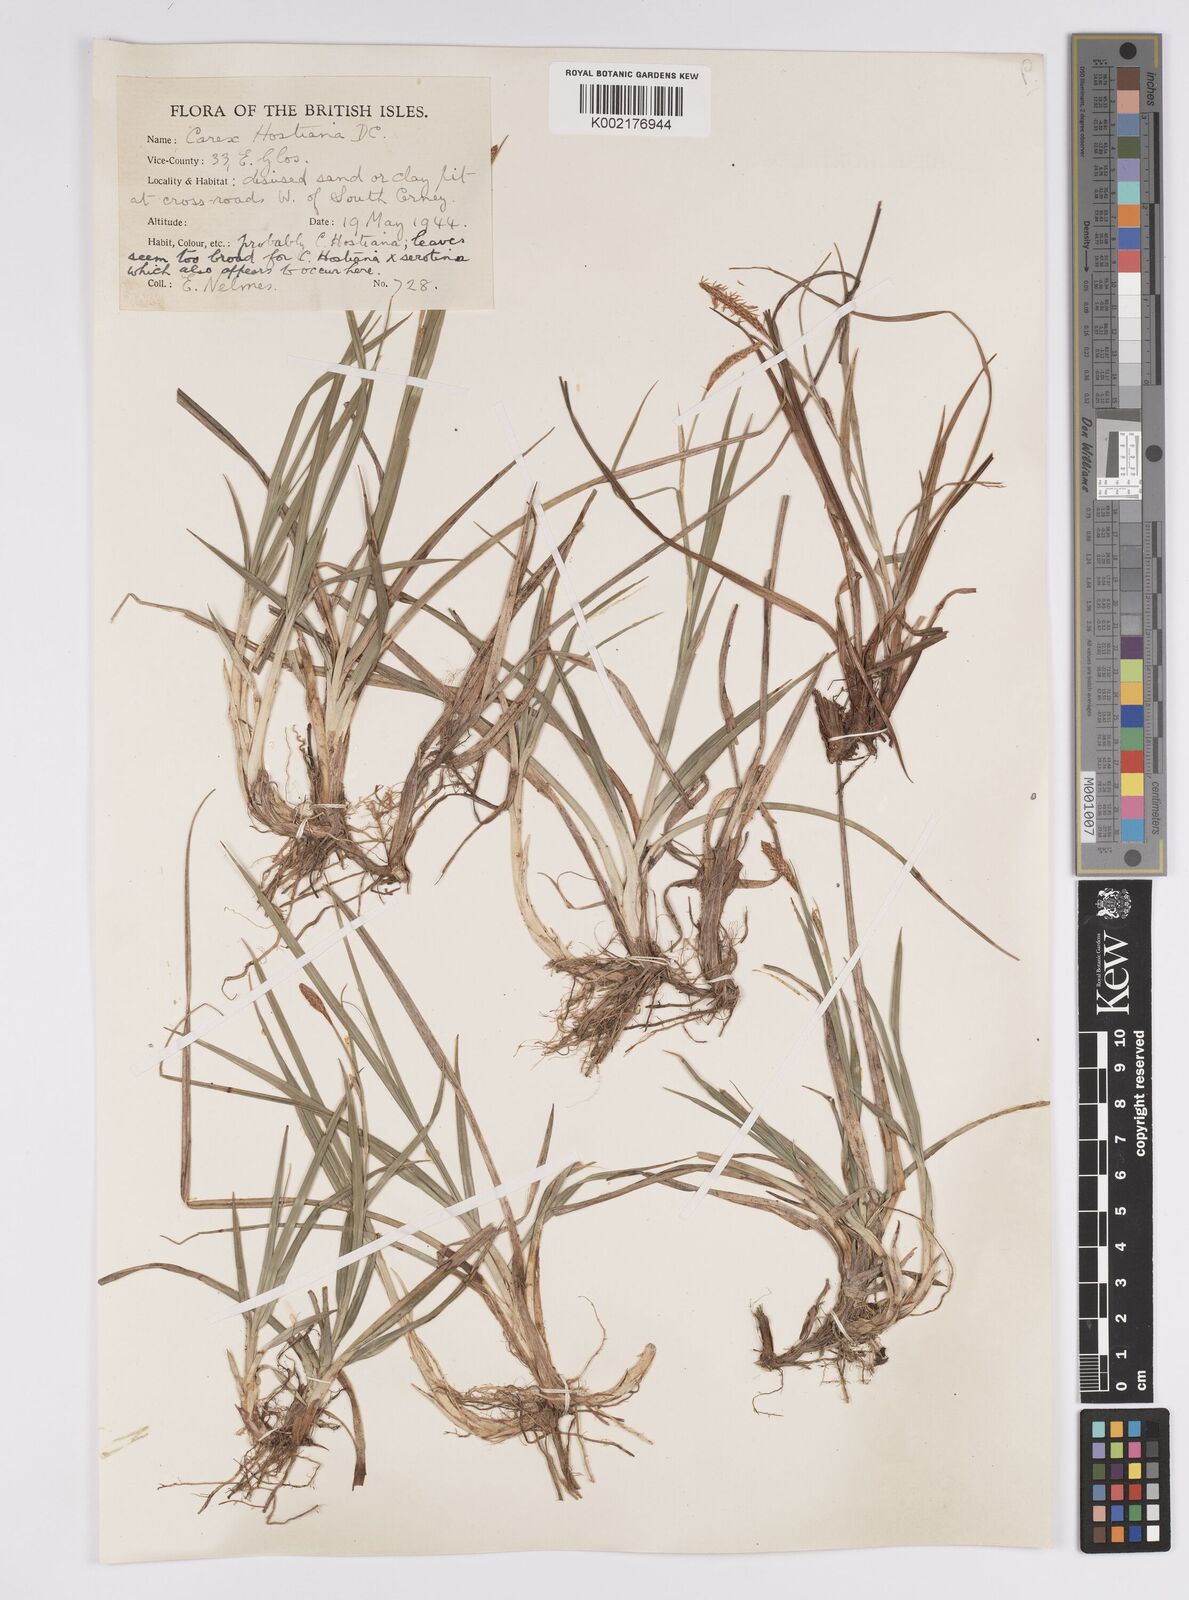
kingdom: Plantae
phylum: Tracheophyta
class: Liliopsida
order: Poales
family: Cyperaceae
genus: Carex
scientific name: Carex hostiana
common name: Tawny sedge
